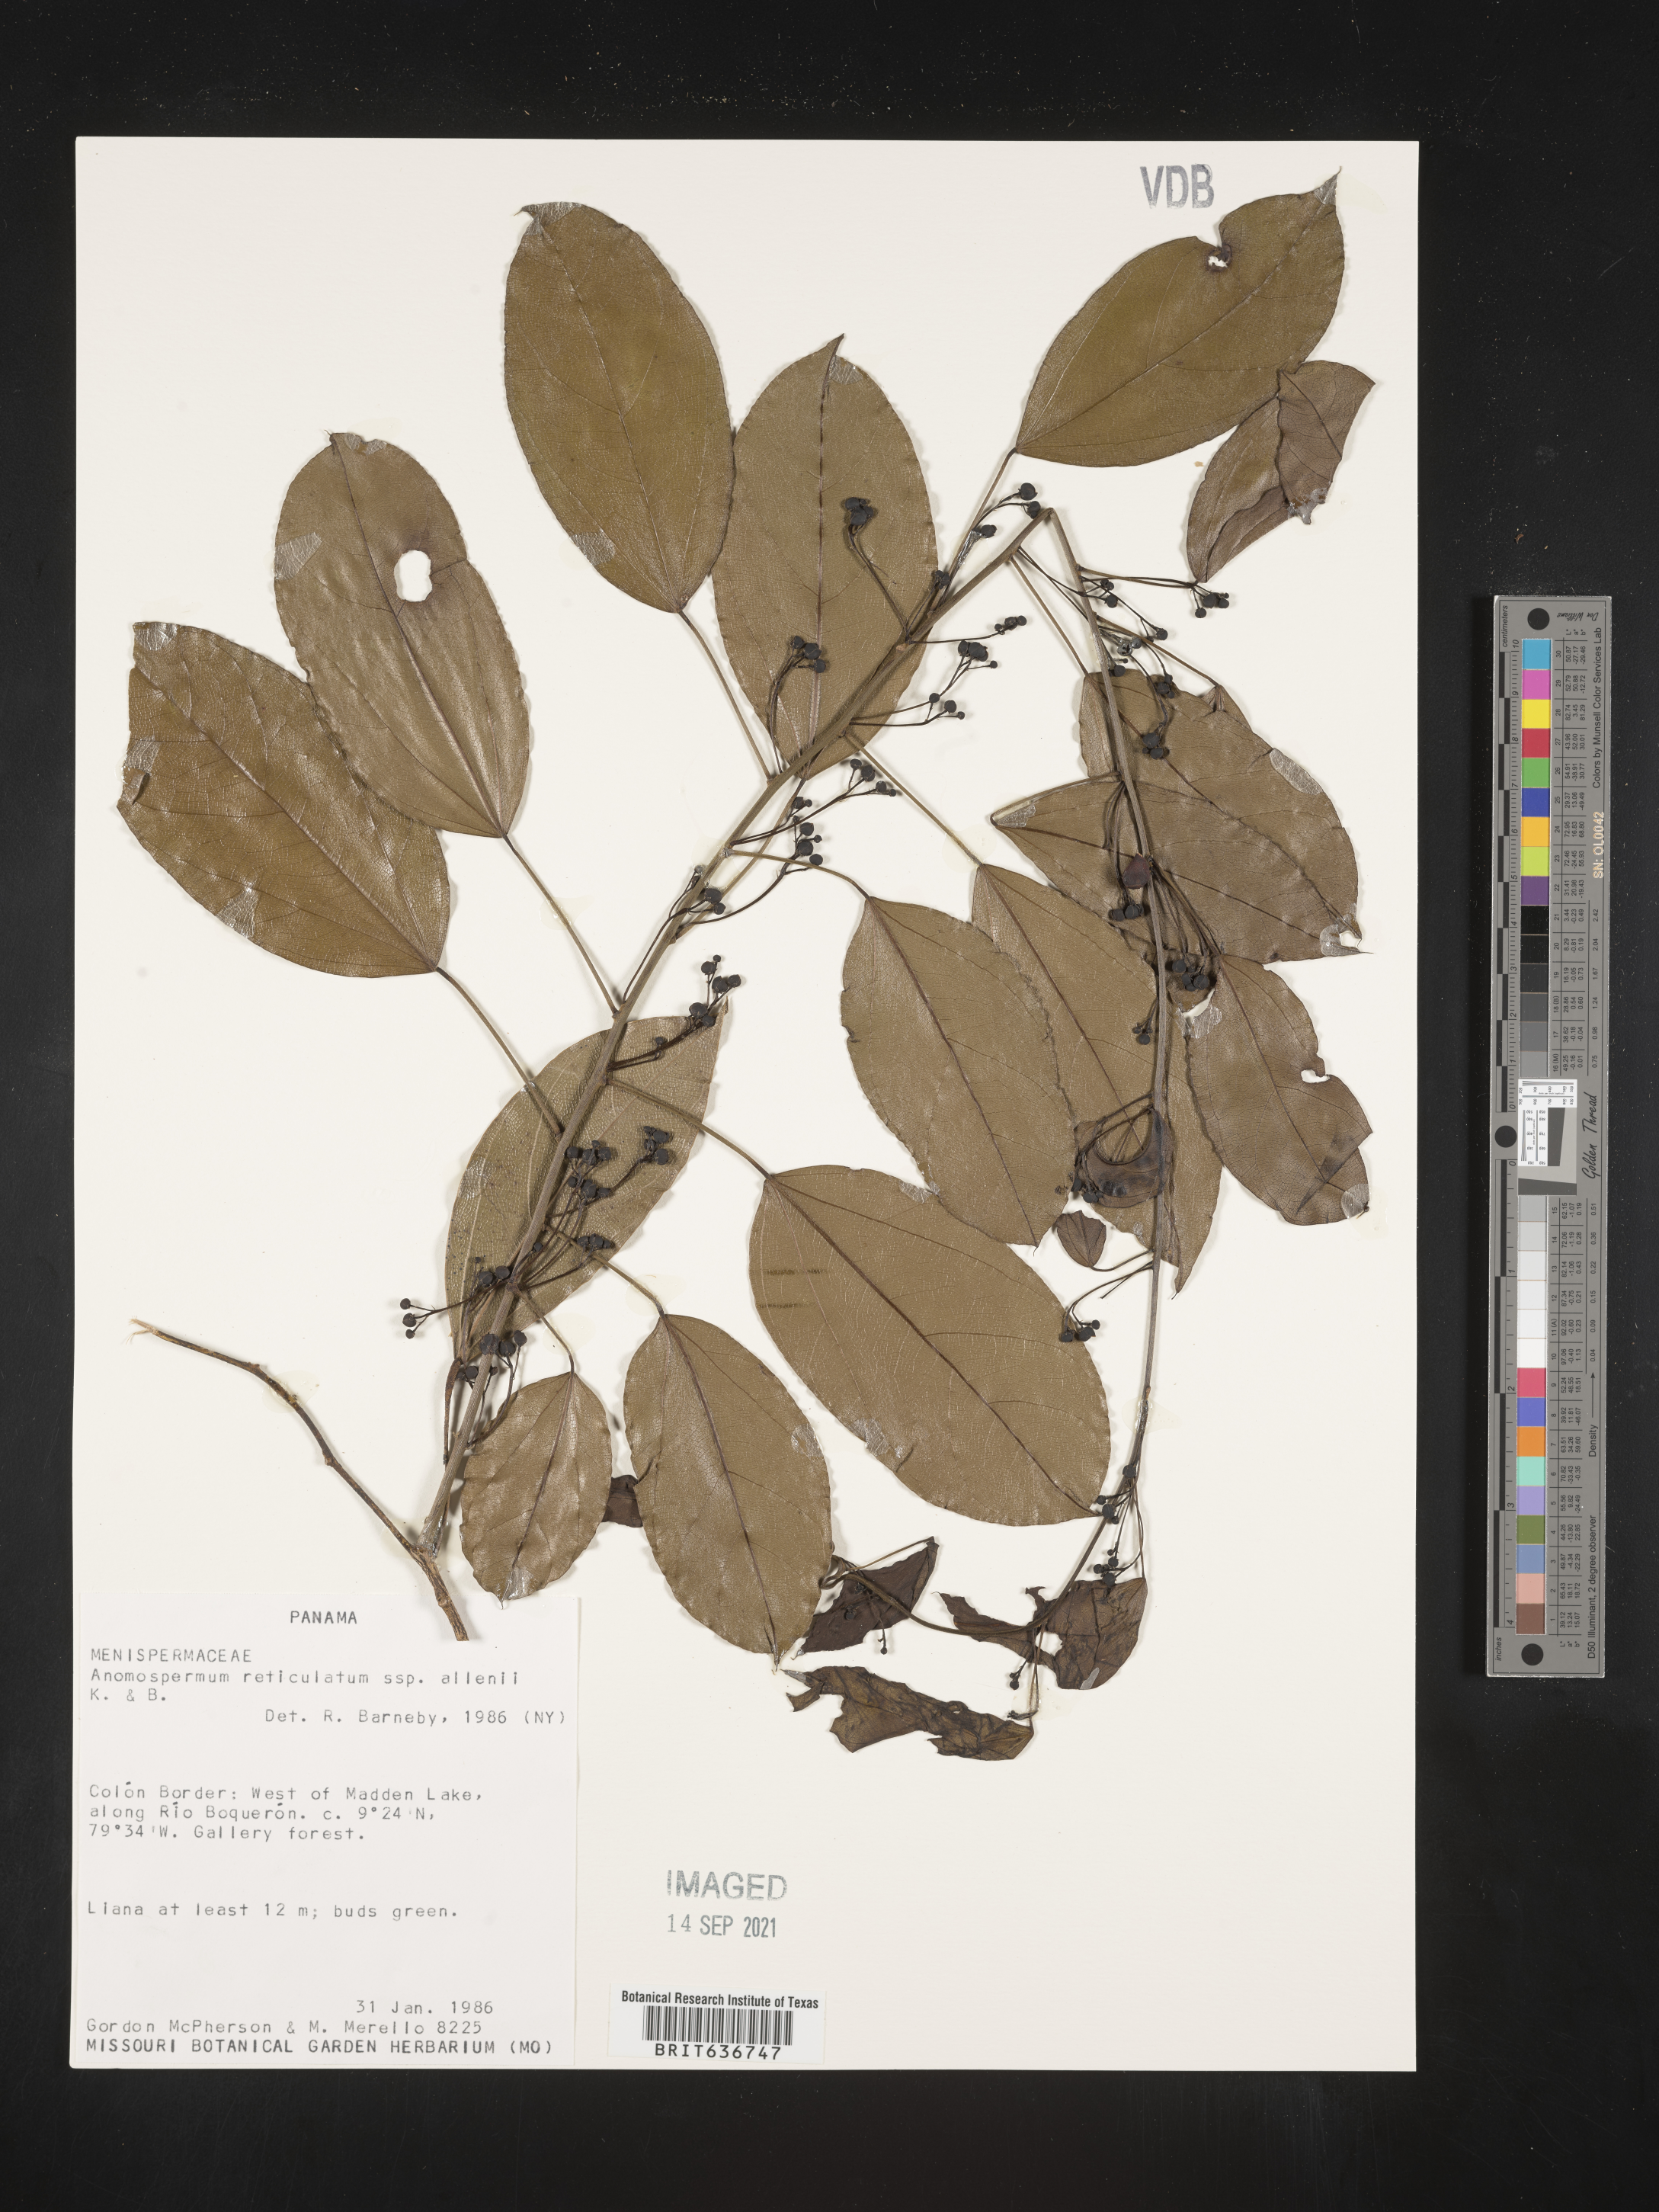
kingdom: Plantae
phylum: Tracheophyta
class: Magnoliopsida
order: Ranunculales
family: Menispermaceae
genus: Anomospermum
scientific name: Anomospermum
